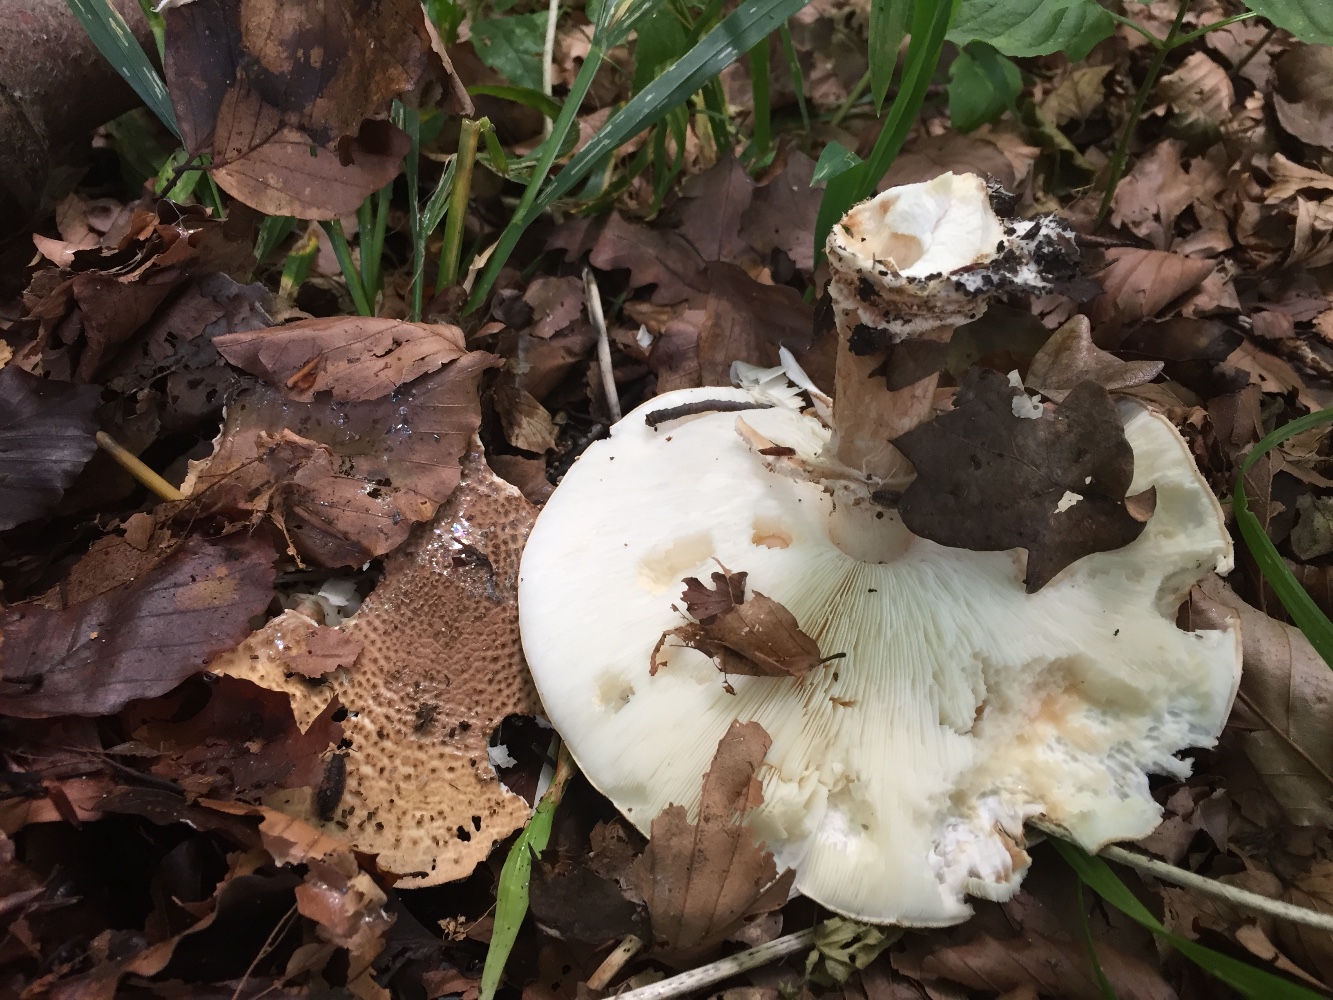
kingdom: Fungi
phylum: Basidiomycota
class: Agaricomycetes
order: Agaricales
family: Agaricaceae
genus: Echinoderma
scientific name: Echinoderma asperum
